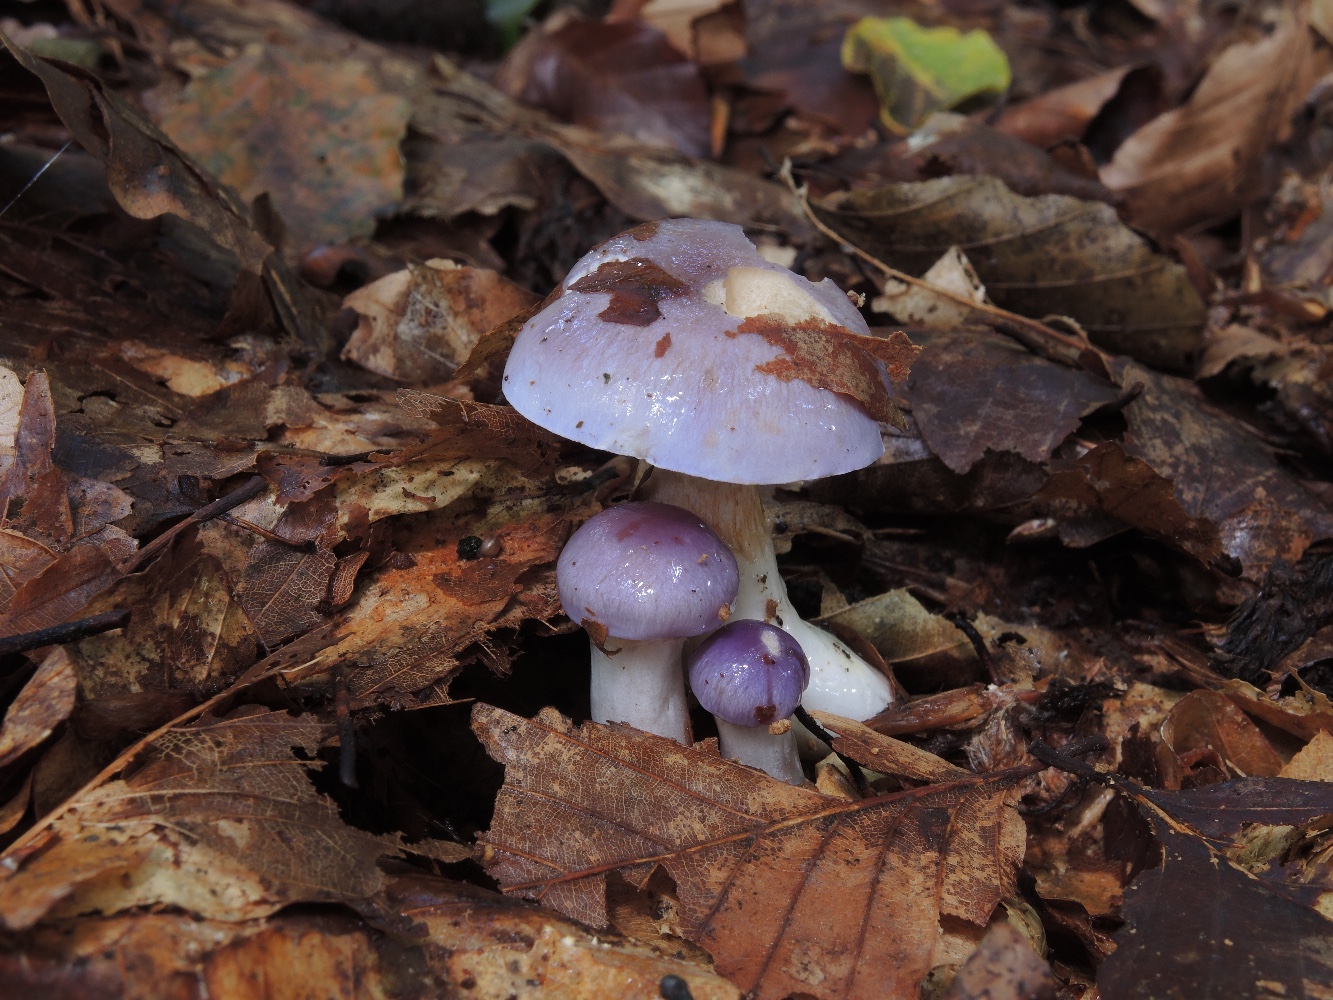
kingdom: Fungi
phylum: Basidiomycota
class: Agaricomycetes
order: Agaricales
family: Cortinariaceae
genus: Thaxterogaster
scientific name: Thaxterogaster croceocoeruleus
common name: blågullig slørhat
